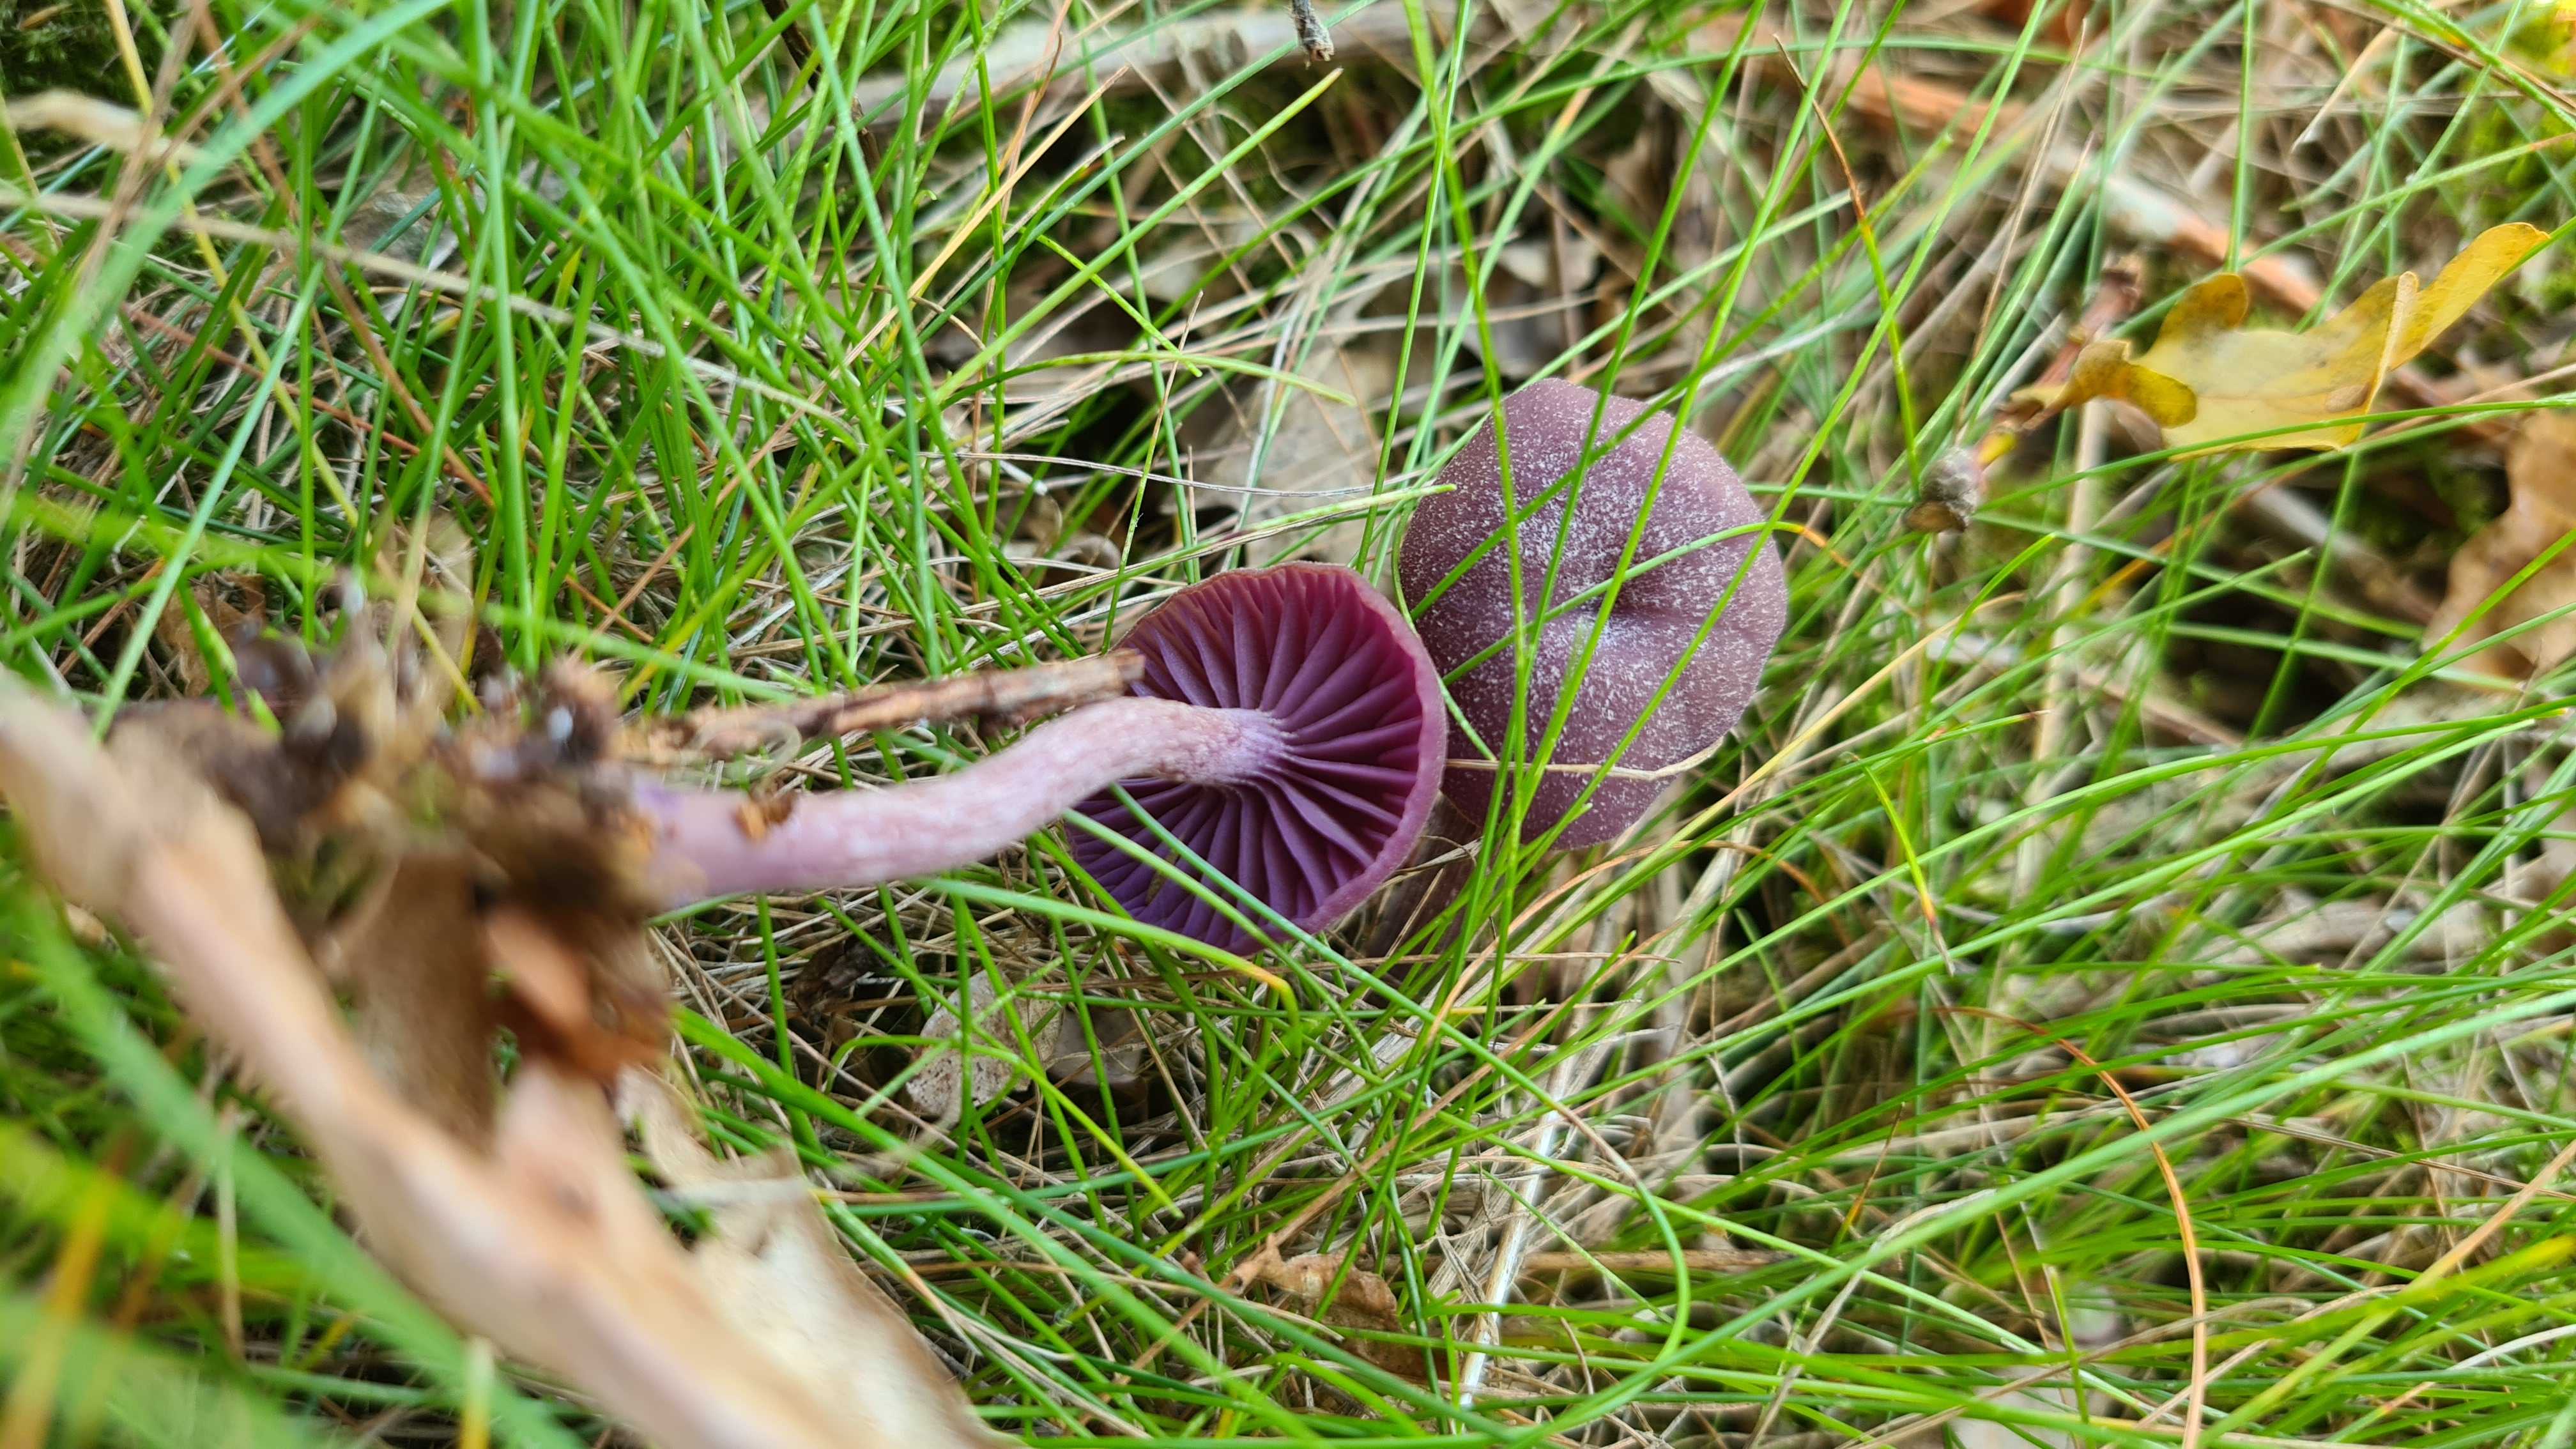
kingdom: Fungi
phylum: Basidiomycota
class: Agaricomycetes
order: Agaricales
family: Hydnangiaceae
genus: Laccaria
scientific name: Laccaria amethystina
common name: violet ametysthat
